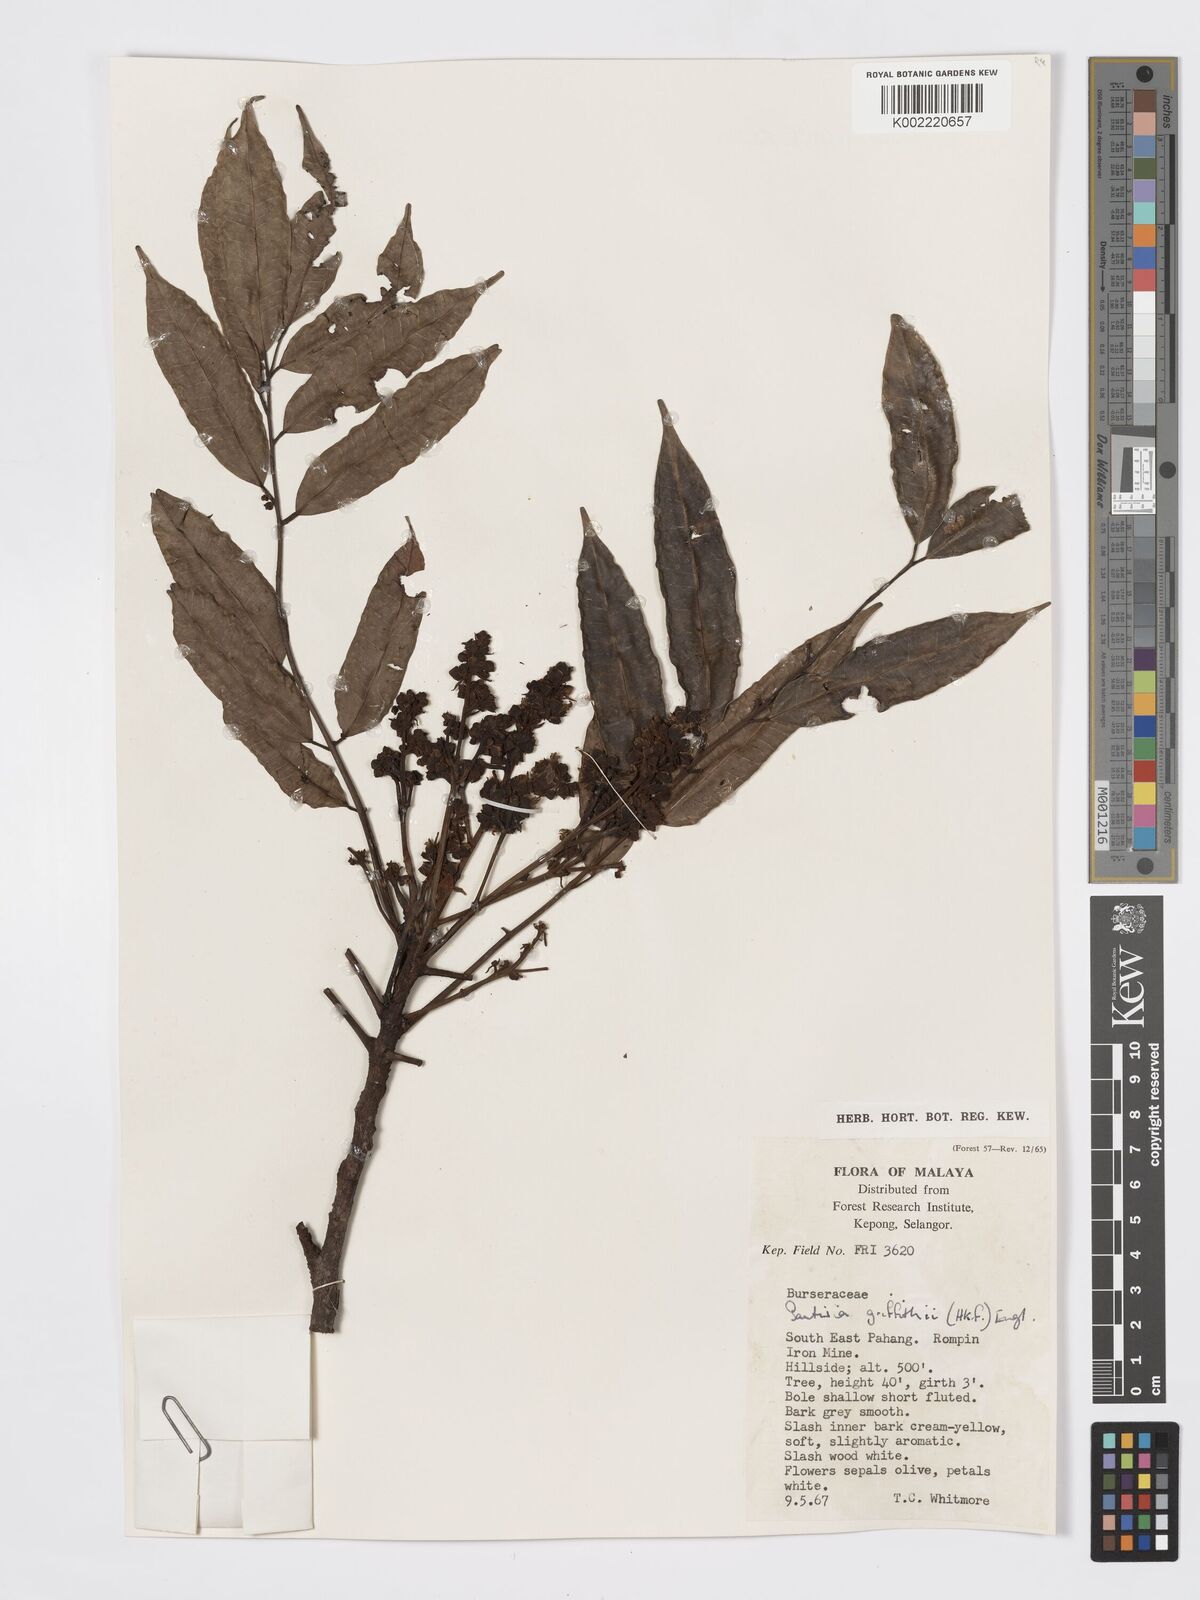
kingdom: Plantae
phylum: Tracheophyta
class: Magnoliopsida
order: Sapindales
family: Burseraceae
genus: Santiria
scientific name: Santiria griffithii
